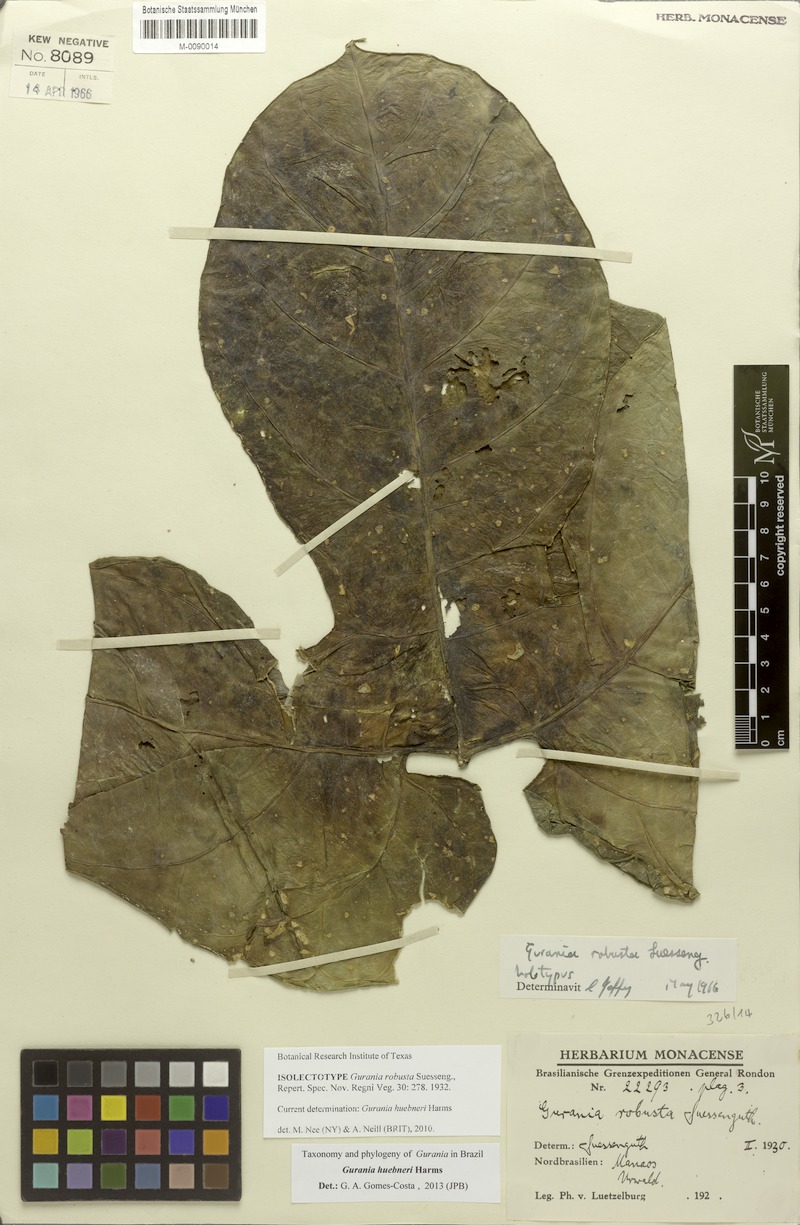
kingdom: Plantae
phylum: Tracheophyta
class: Magnoliopsida
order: Cucurbitales
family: Cucurbitaceae
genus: Gurania
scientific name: Gurania huebneri
